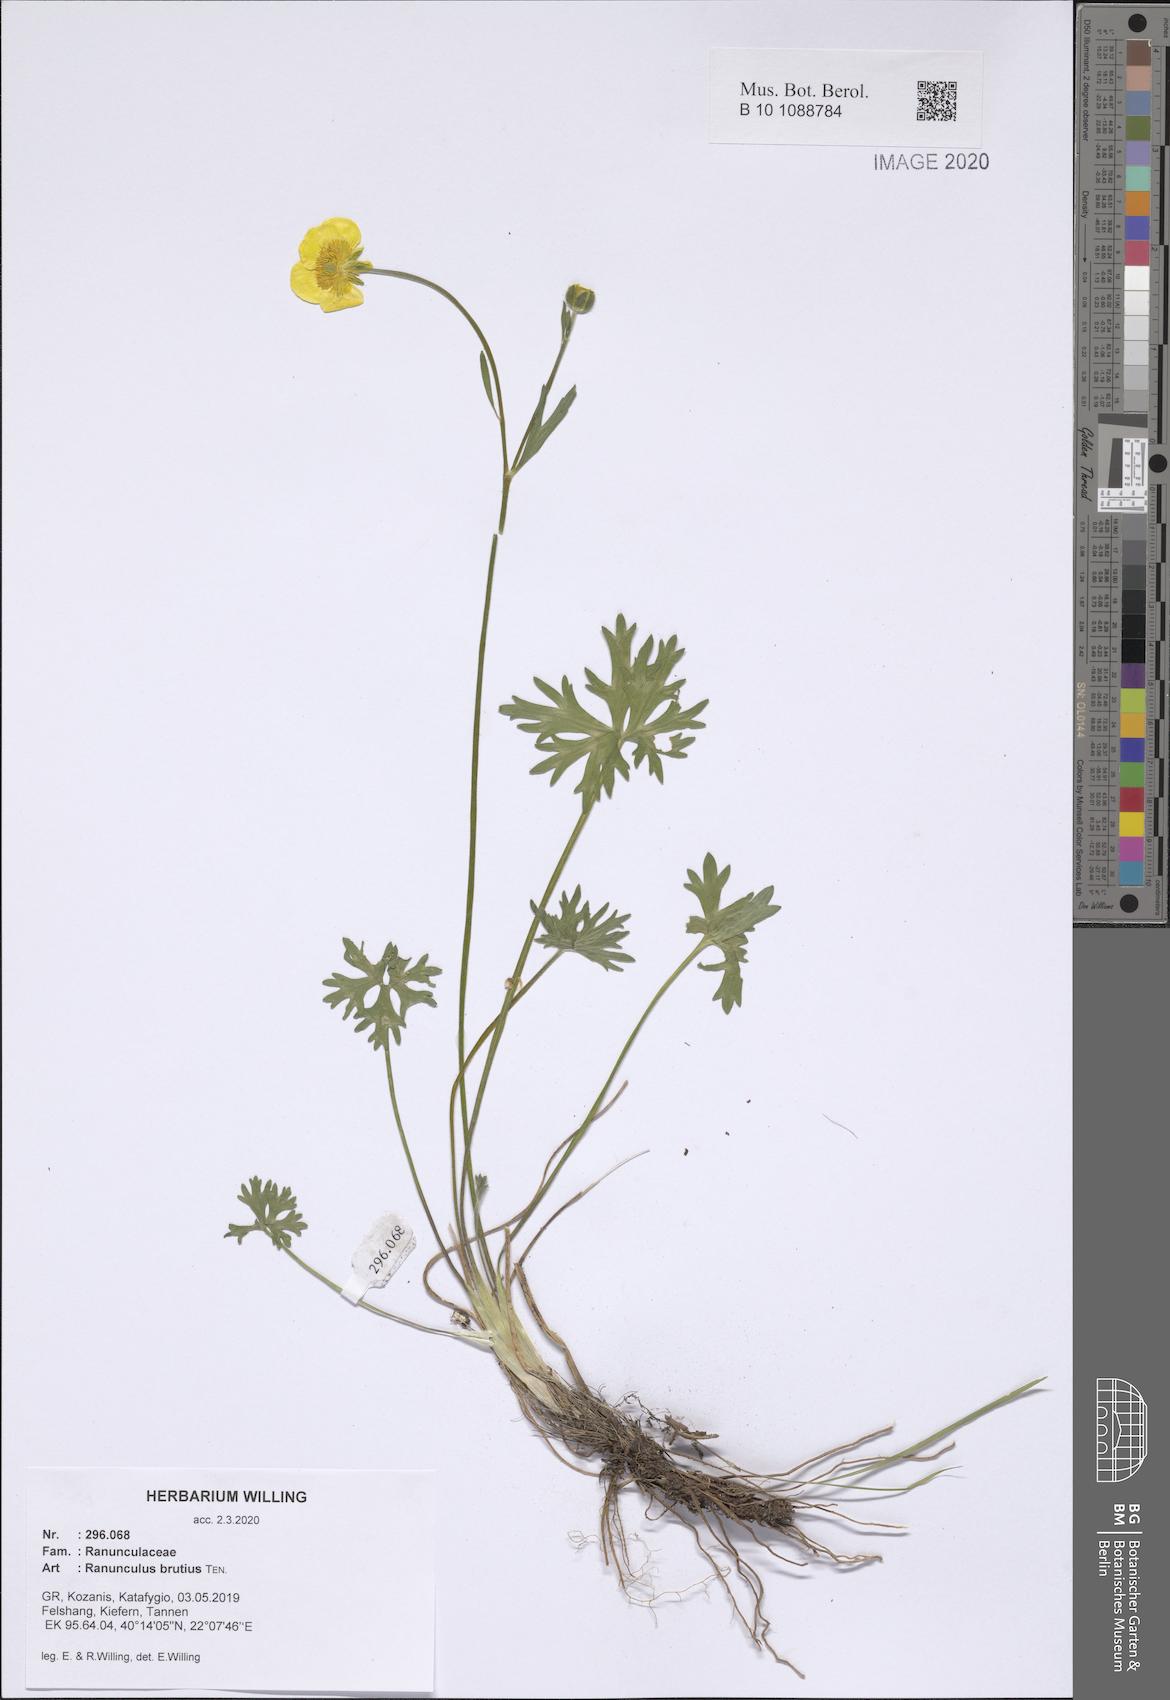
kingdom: Plantae
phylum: Tracheophyta
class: Magnoliopsida
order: Ranunculales
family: Ranunculaceae
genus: Ranunculus
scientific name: Ranunculus brutius
